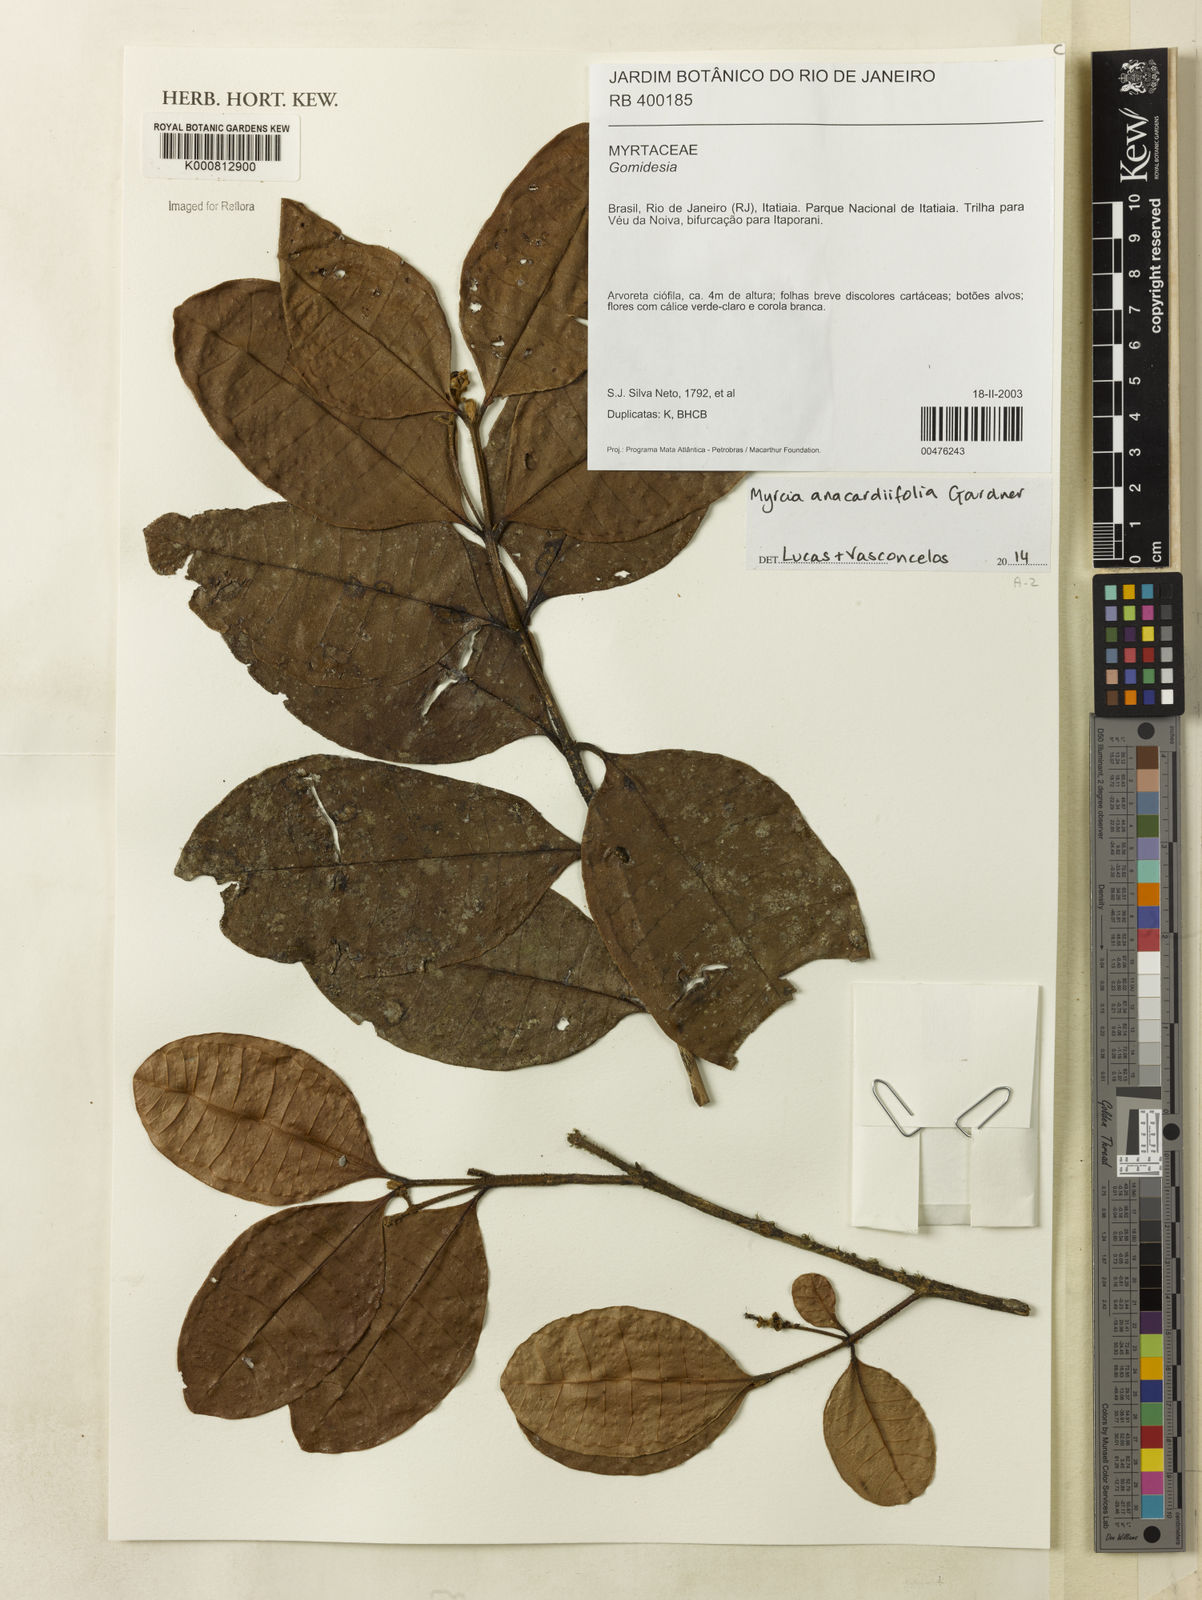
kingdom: Plantae
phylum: Tracheophyta
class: Magnoliopsida
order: Myrtales
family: Myrtaceae
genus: Myrcia
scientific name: Myrcia anacardiifolia
